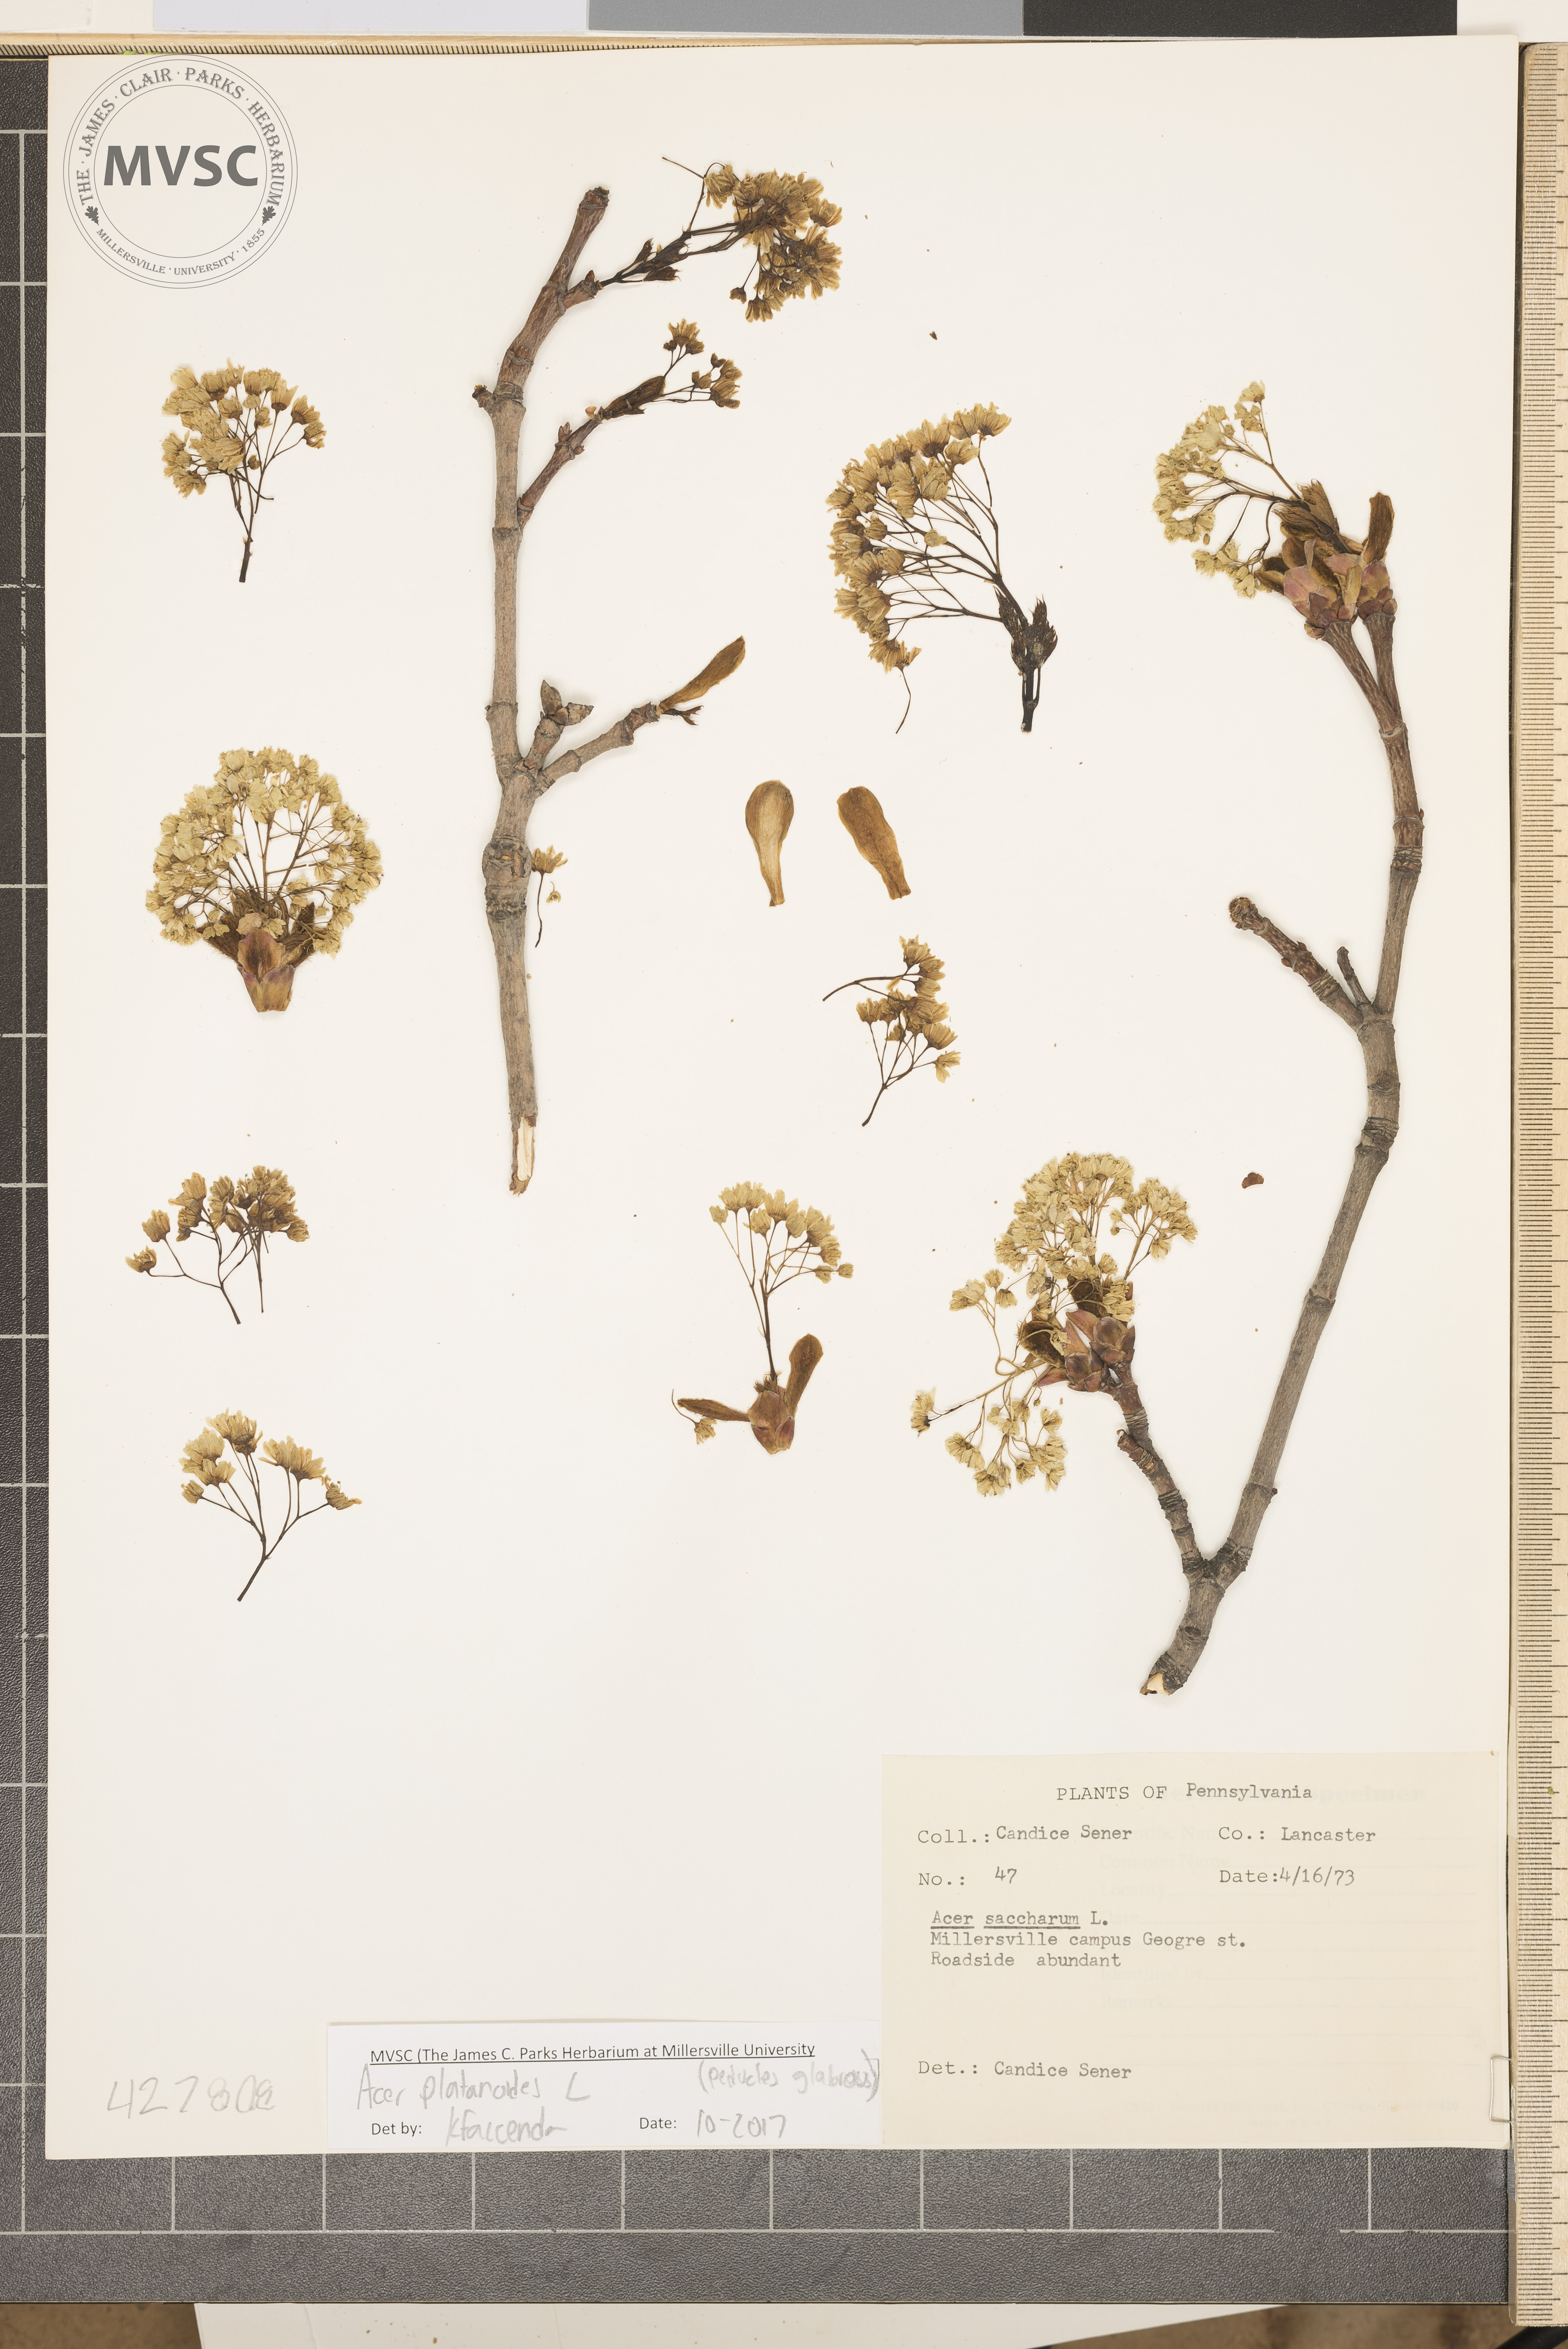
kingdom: Plantae
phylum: Tracheophyta
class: Magnoliopsida
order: Sapindales
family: Sapindaceae
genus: Acer
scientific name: Acer platanoides
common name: Norway maple
